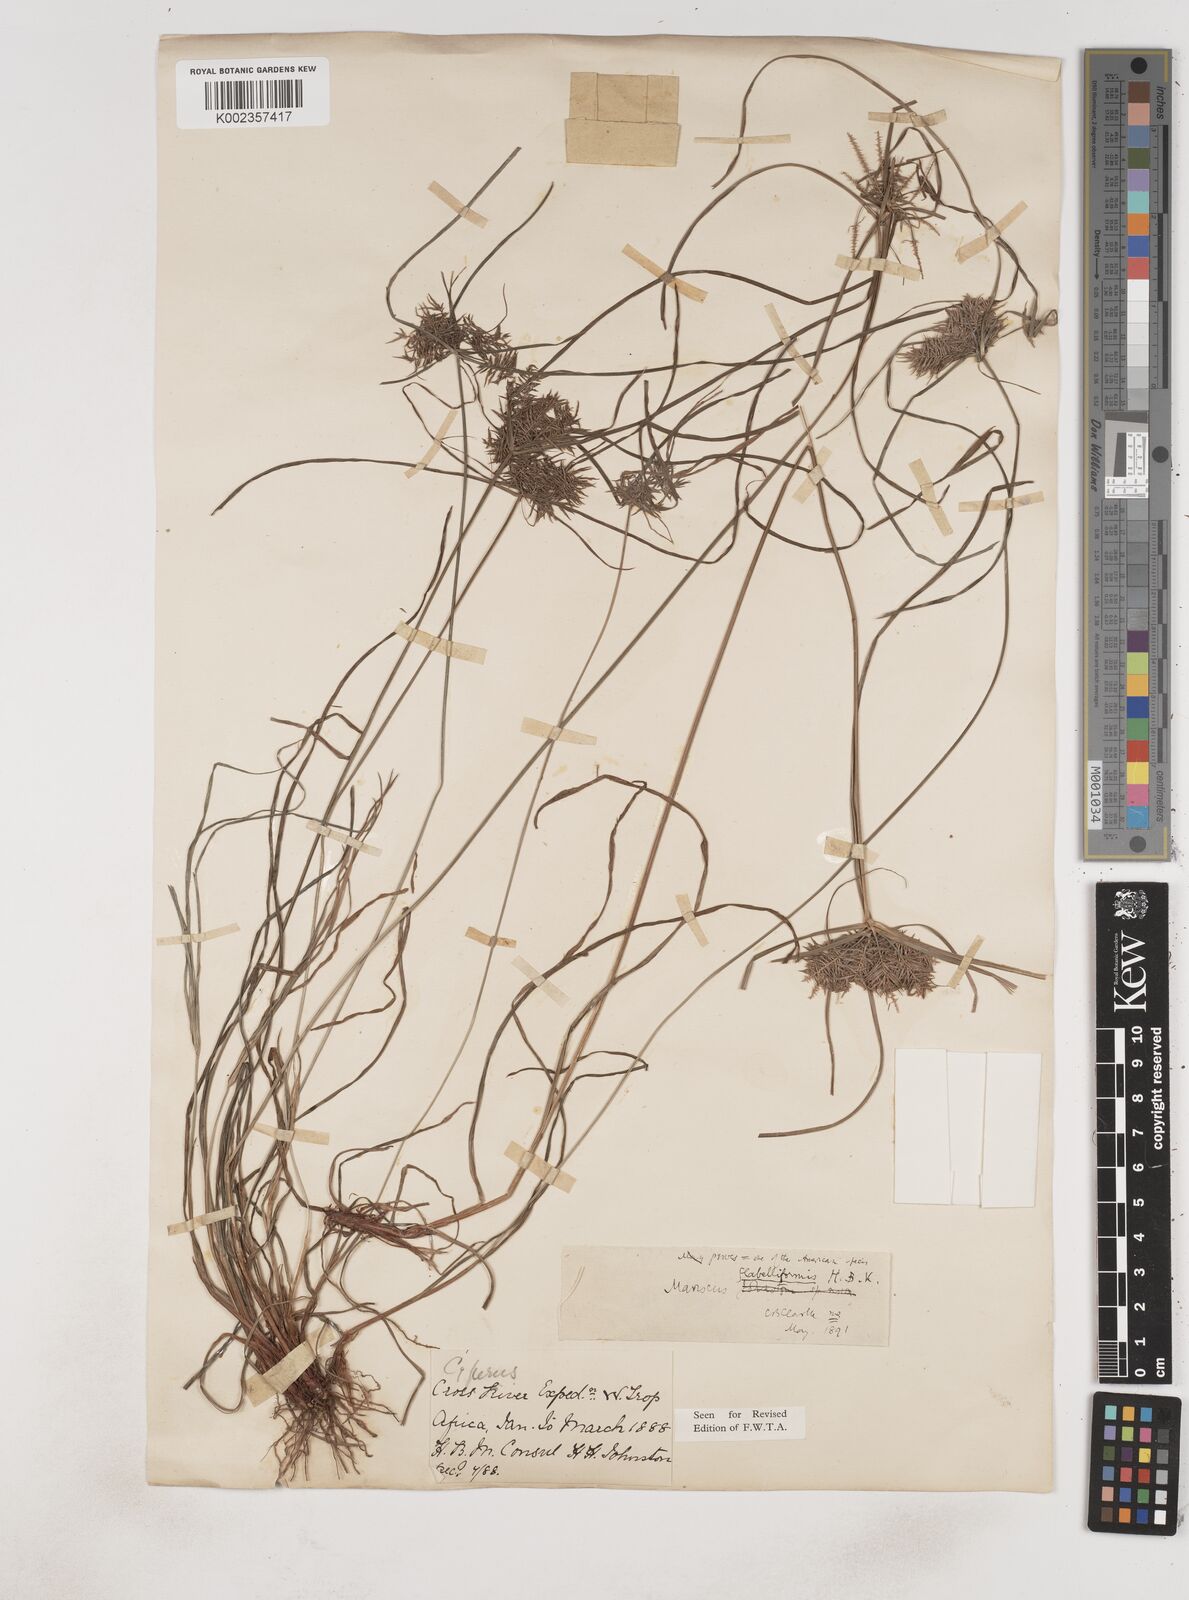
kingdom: Plantae
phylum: Tracheophyta
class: Liliopsida
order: Poales
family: Cyperaceae
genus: Cyperus
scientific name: Cyperus tenuis
